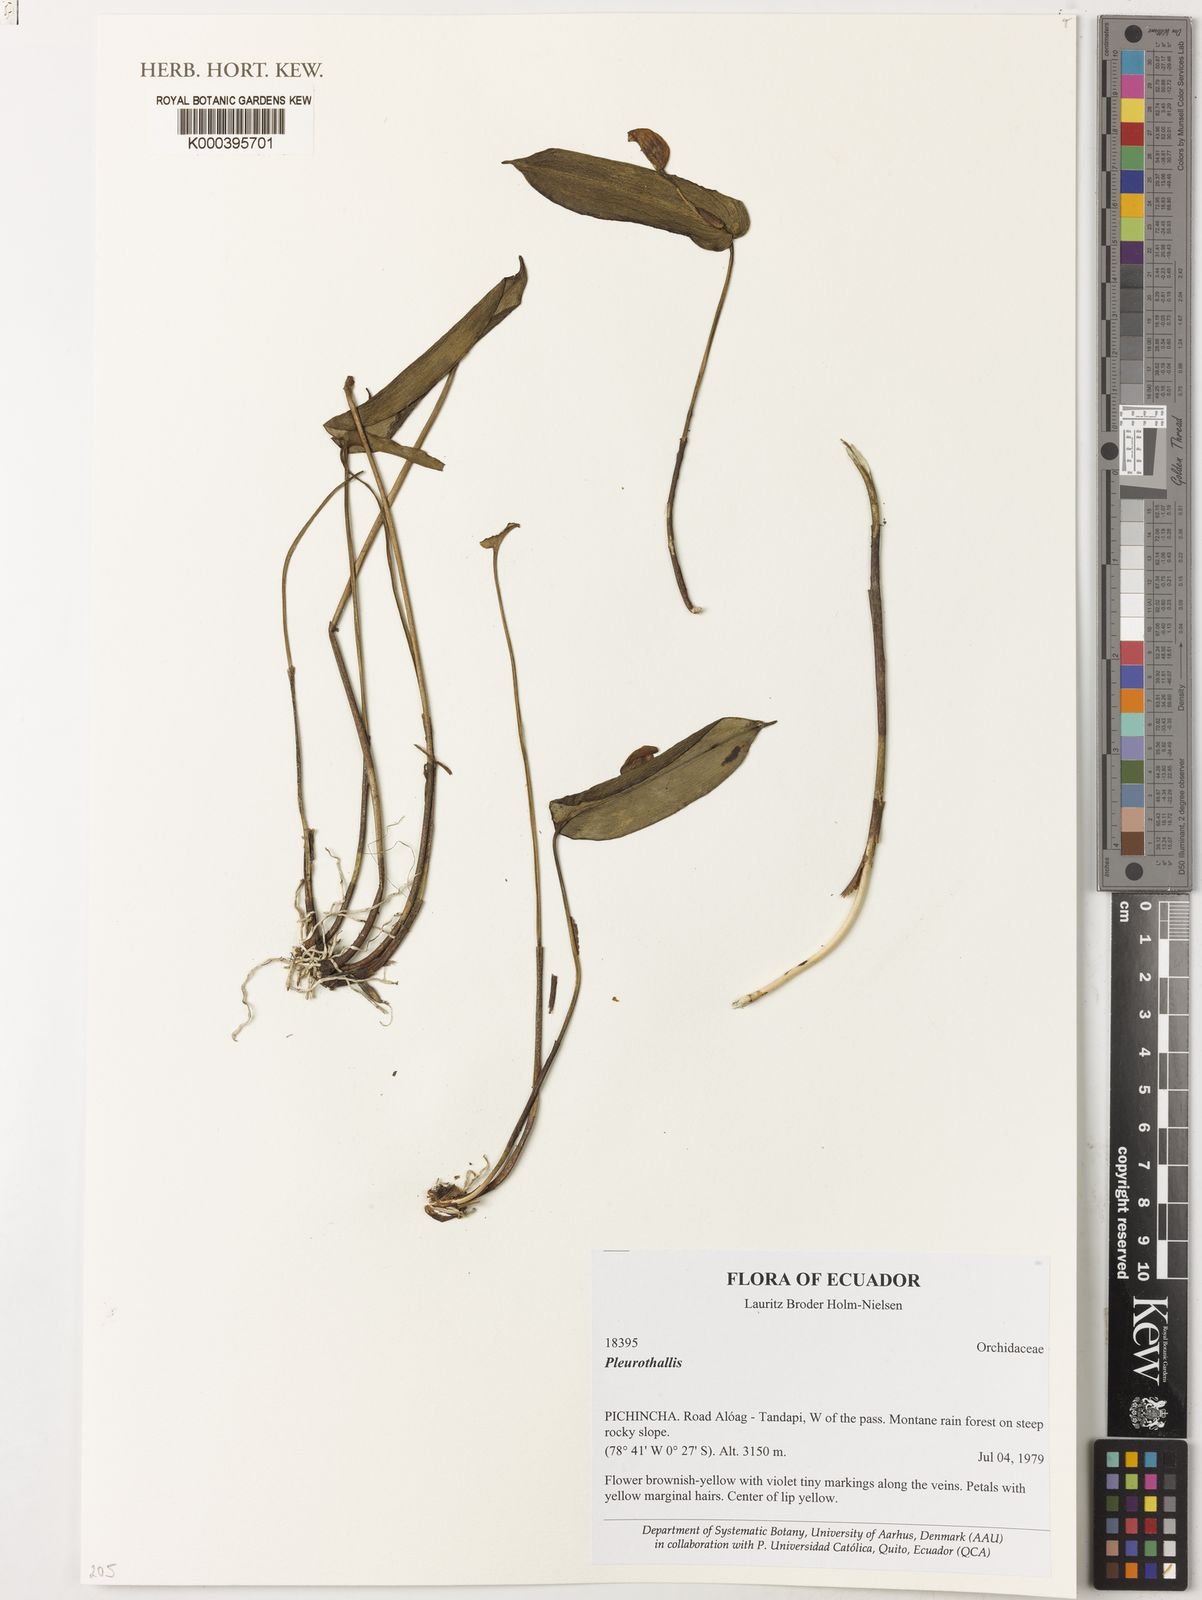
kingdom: Plantae
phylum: Tracheophyta
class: Liliopsida
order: Asparagales
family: Orchidaceae
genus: Pleurothallis
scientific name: Pleurothallis
